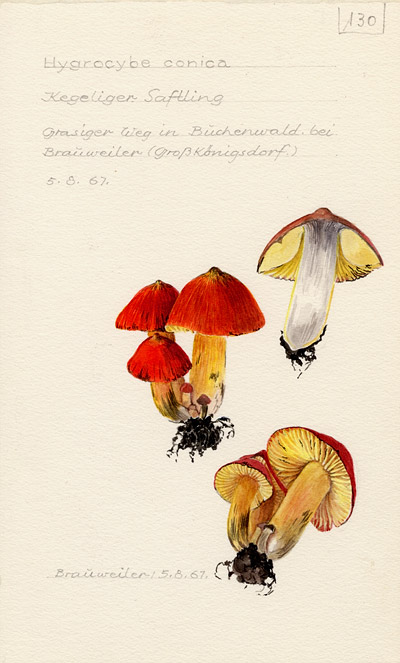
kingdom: Fungi
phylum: Basidiomycota
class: Agaricomycetes
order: Agaricales
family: Hygrophoraceae
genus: Hygrocybe
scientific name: Hygrocybe conica
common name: Blackening wax-cap
